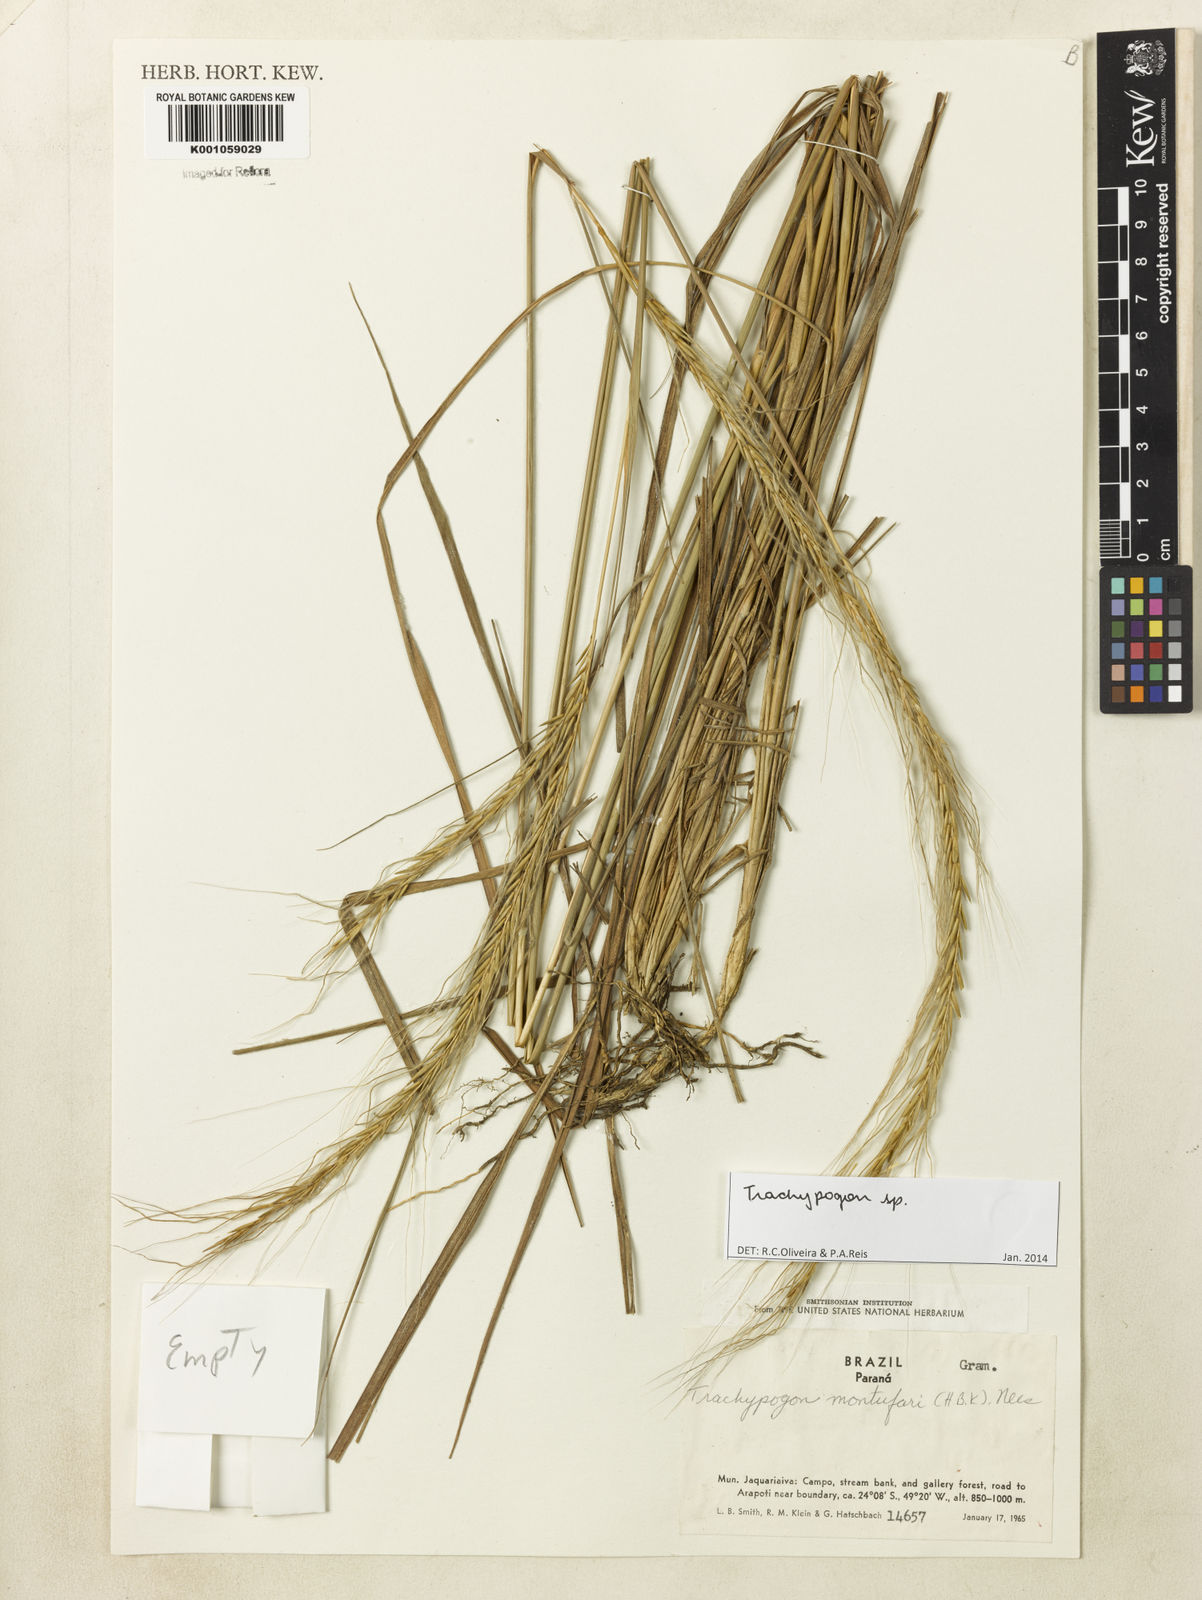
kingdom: Plantae
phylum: Tracheophyta
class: Liliopsida
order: Poales
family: Poaceae
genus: Trachypogon
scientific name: Trachypogon
